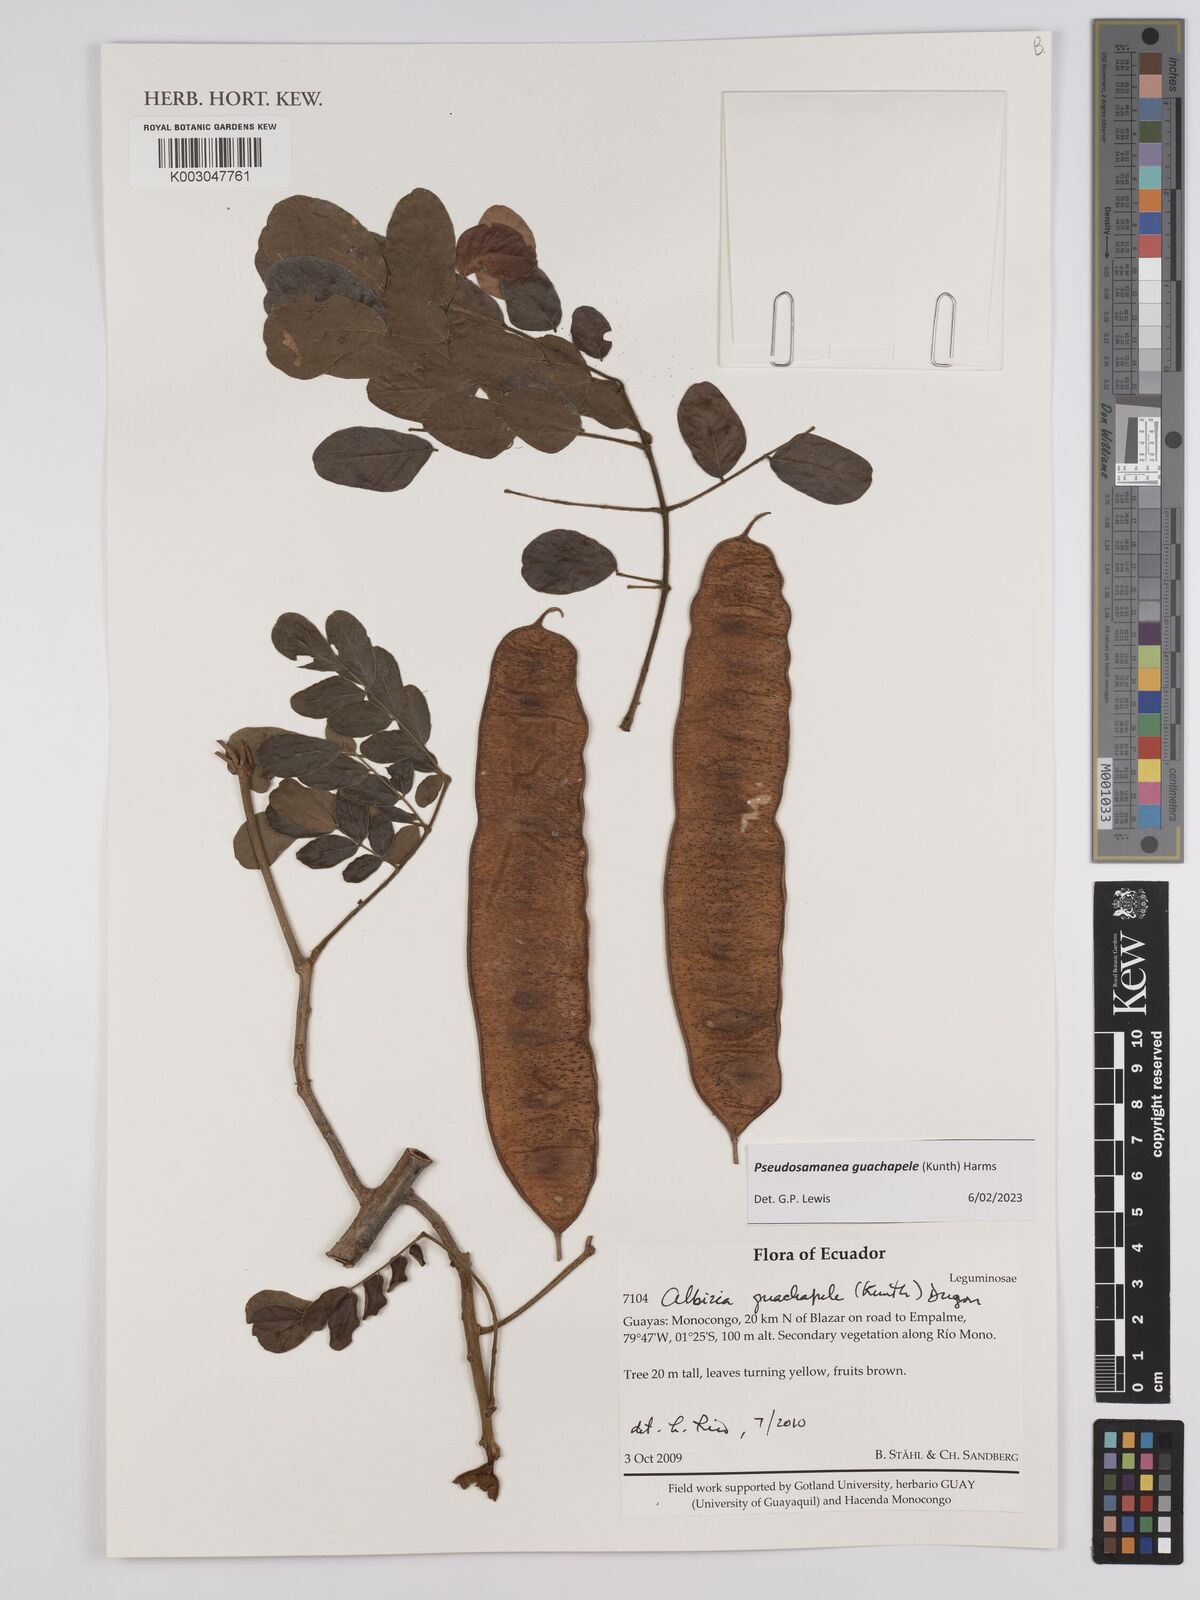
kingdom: Plantae
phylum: Tracheophyta
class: Magnoliopsida
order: Fabales
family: Fabaceae
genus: Pseudosamanea
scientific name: Pseudosamanea guachapele
